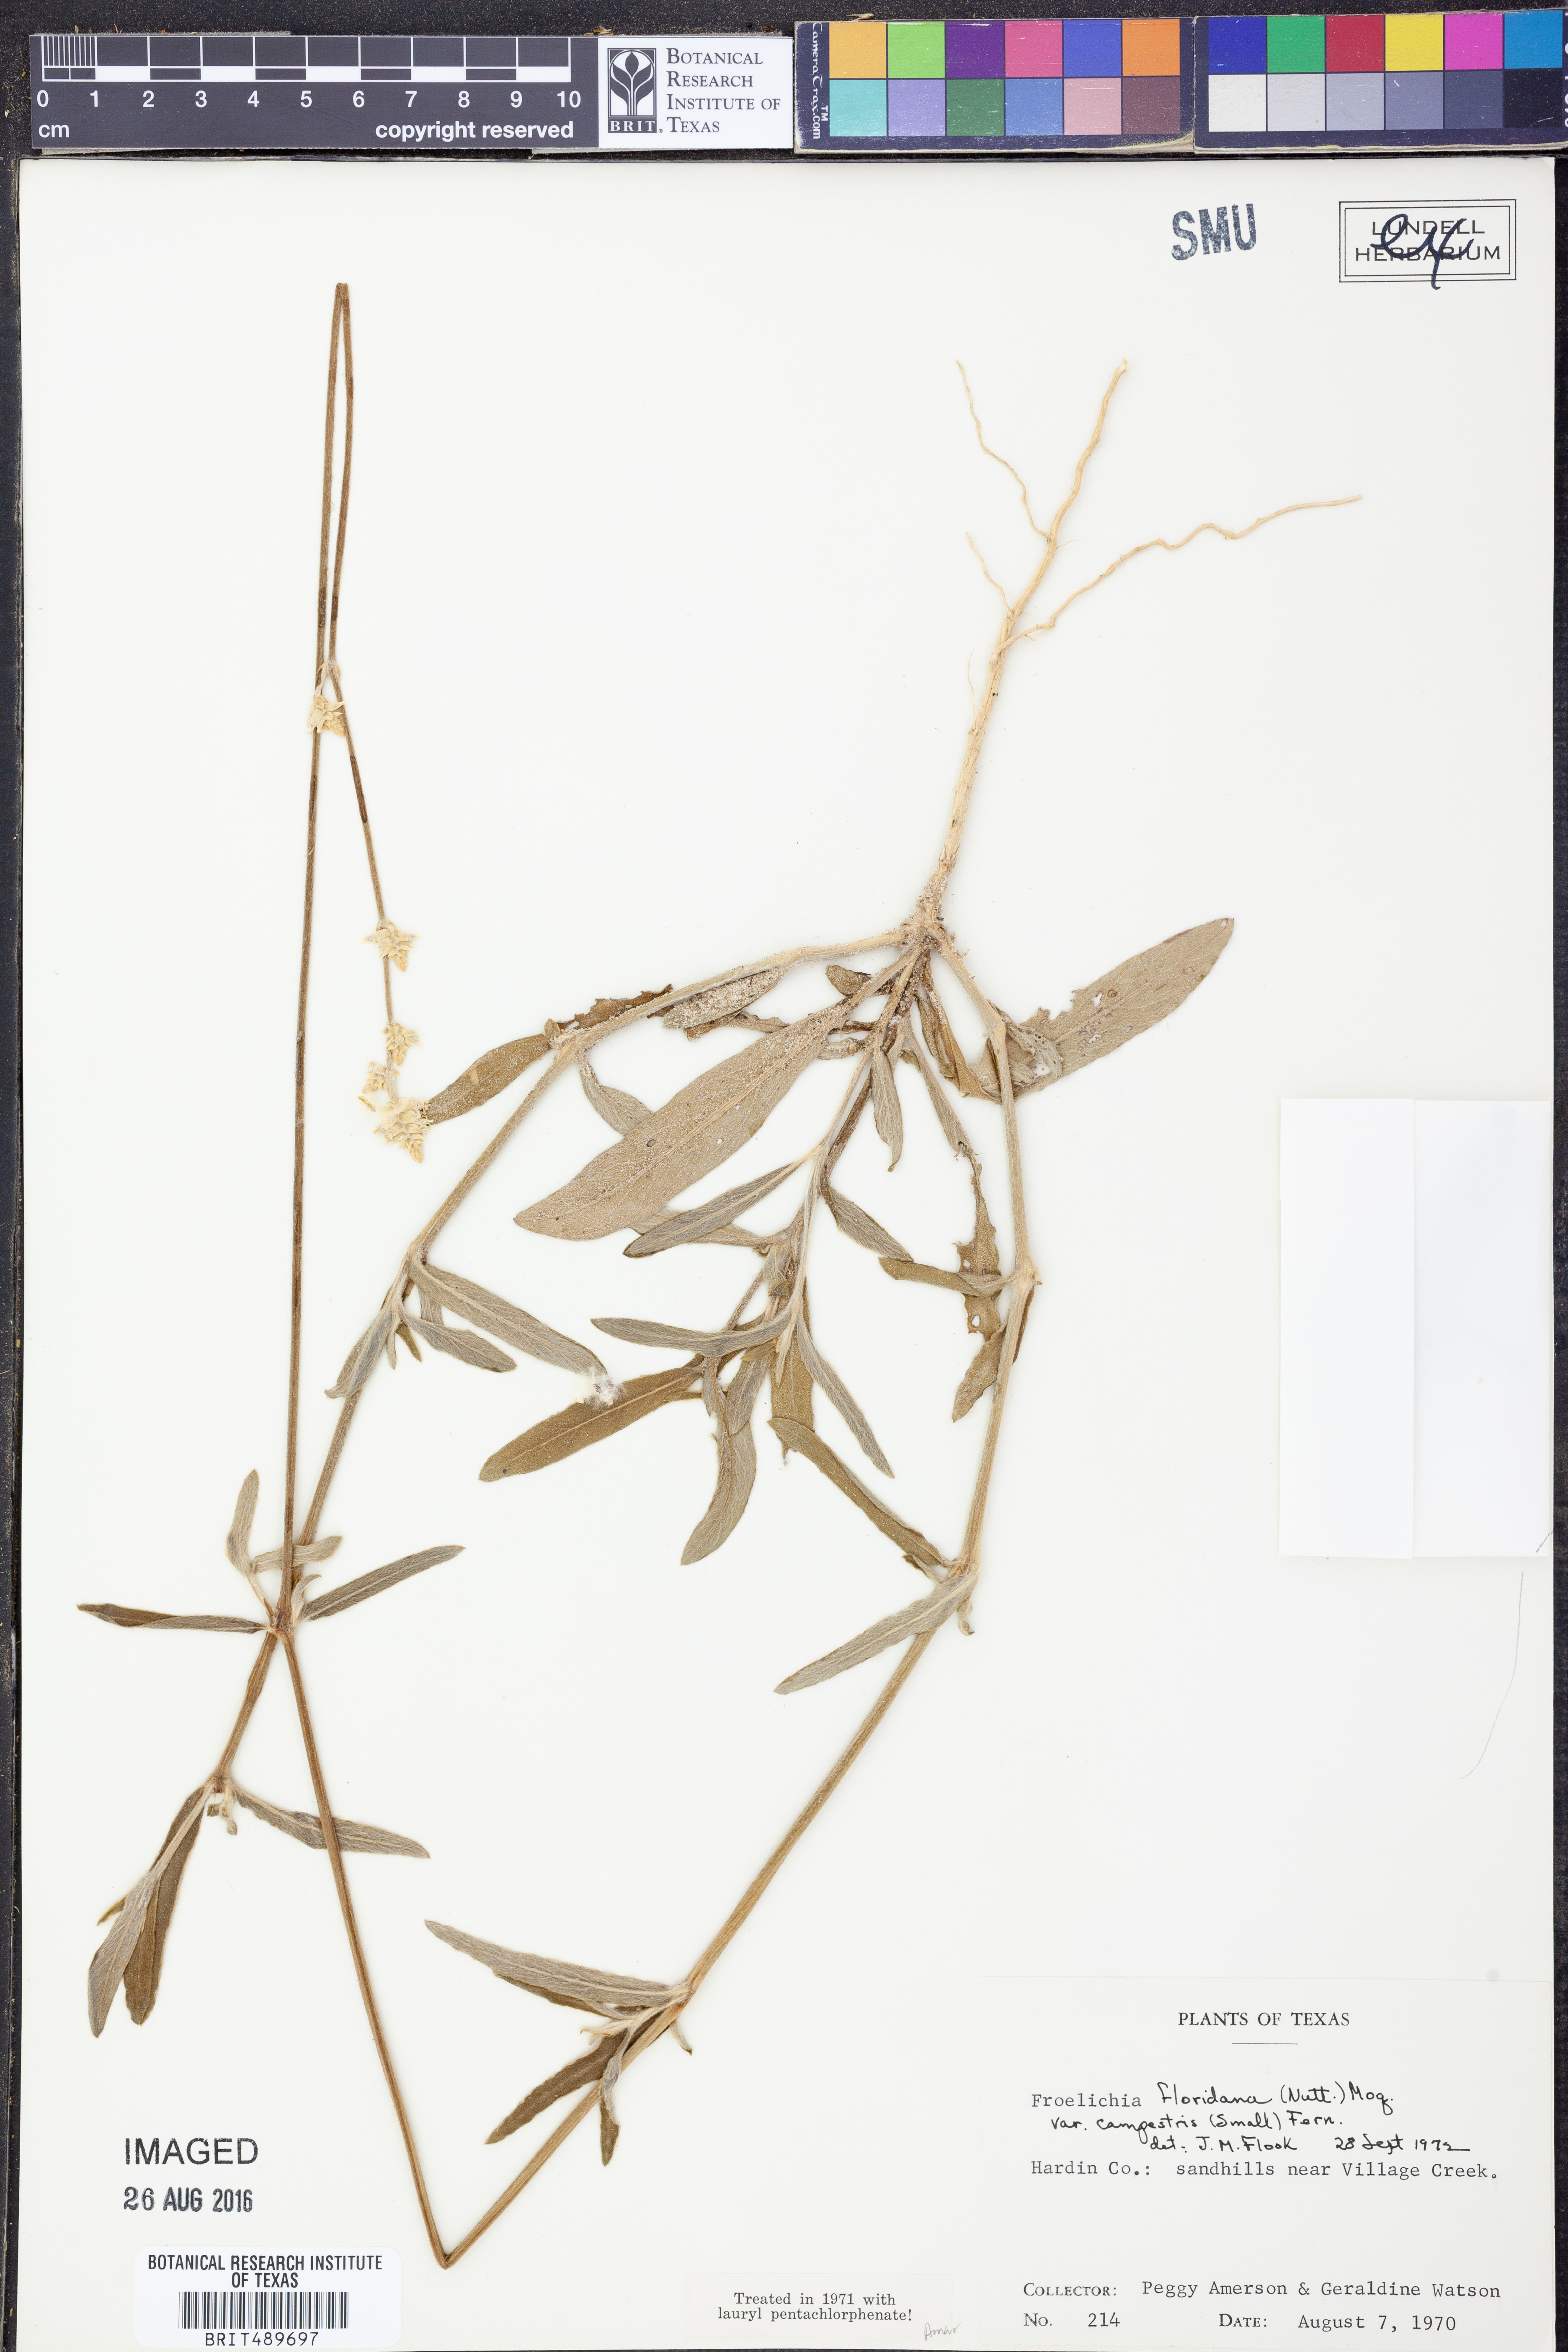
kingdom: Plantae
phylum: Tracheophyta
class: Magnoliopsida
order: Caryophyllales
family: Amaranthaceae
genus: Froelichia
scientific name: Froelichia floridana
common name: Florida snake-cotton
